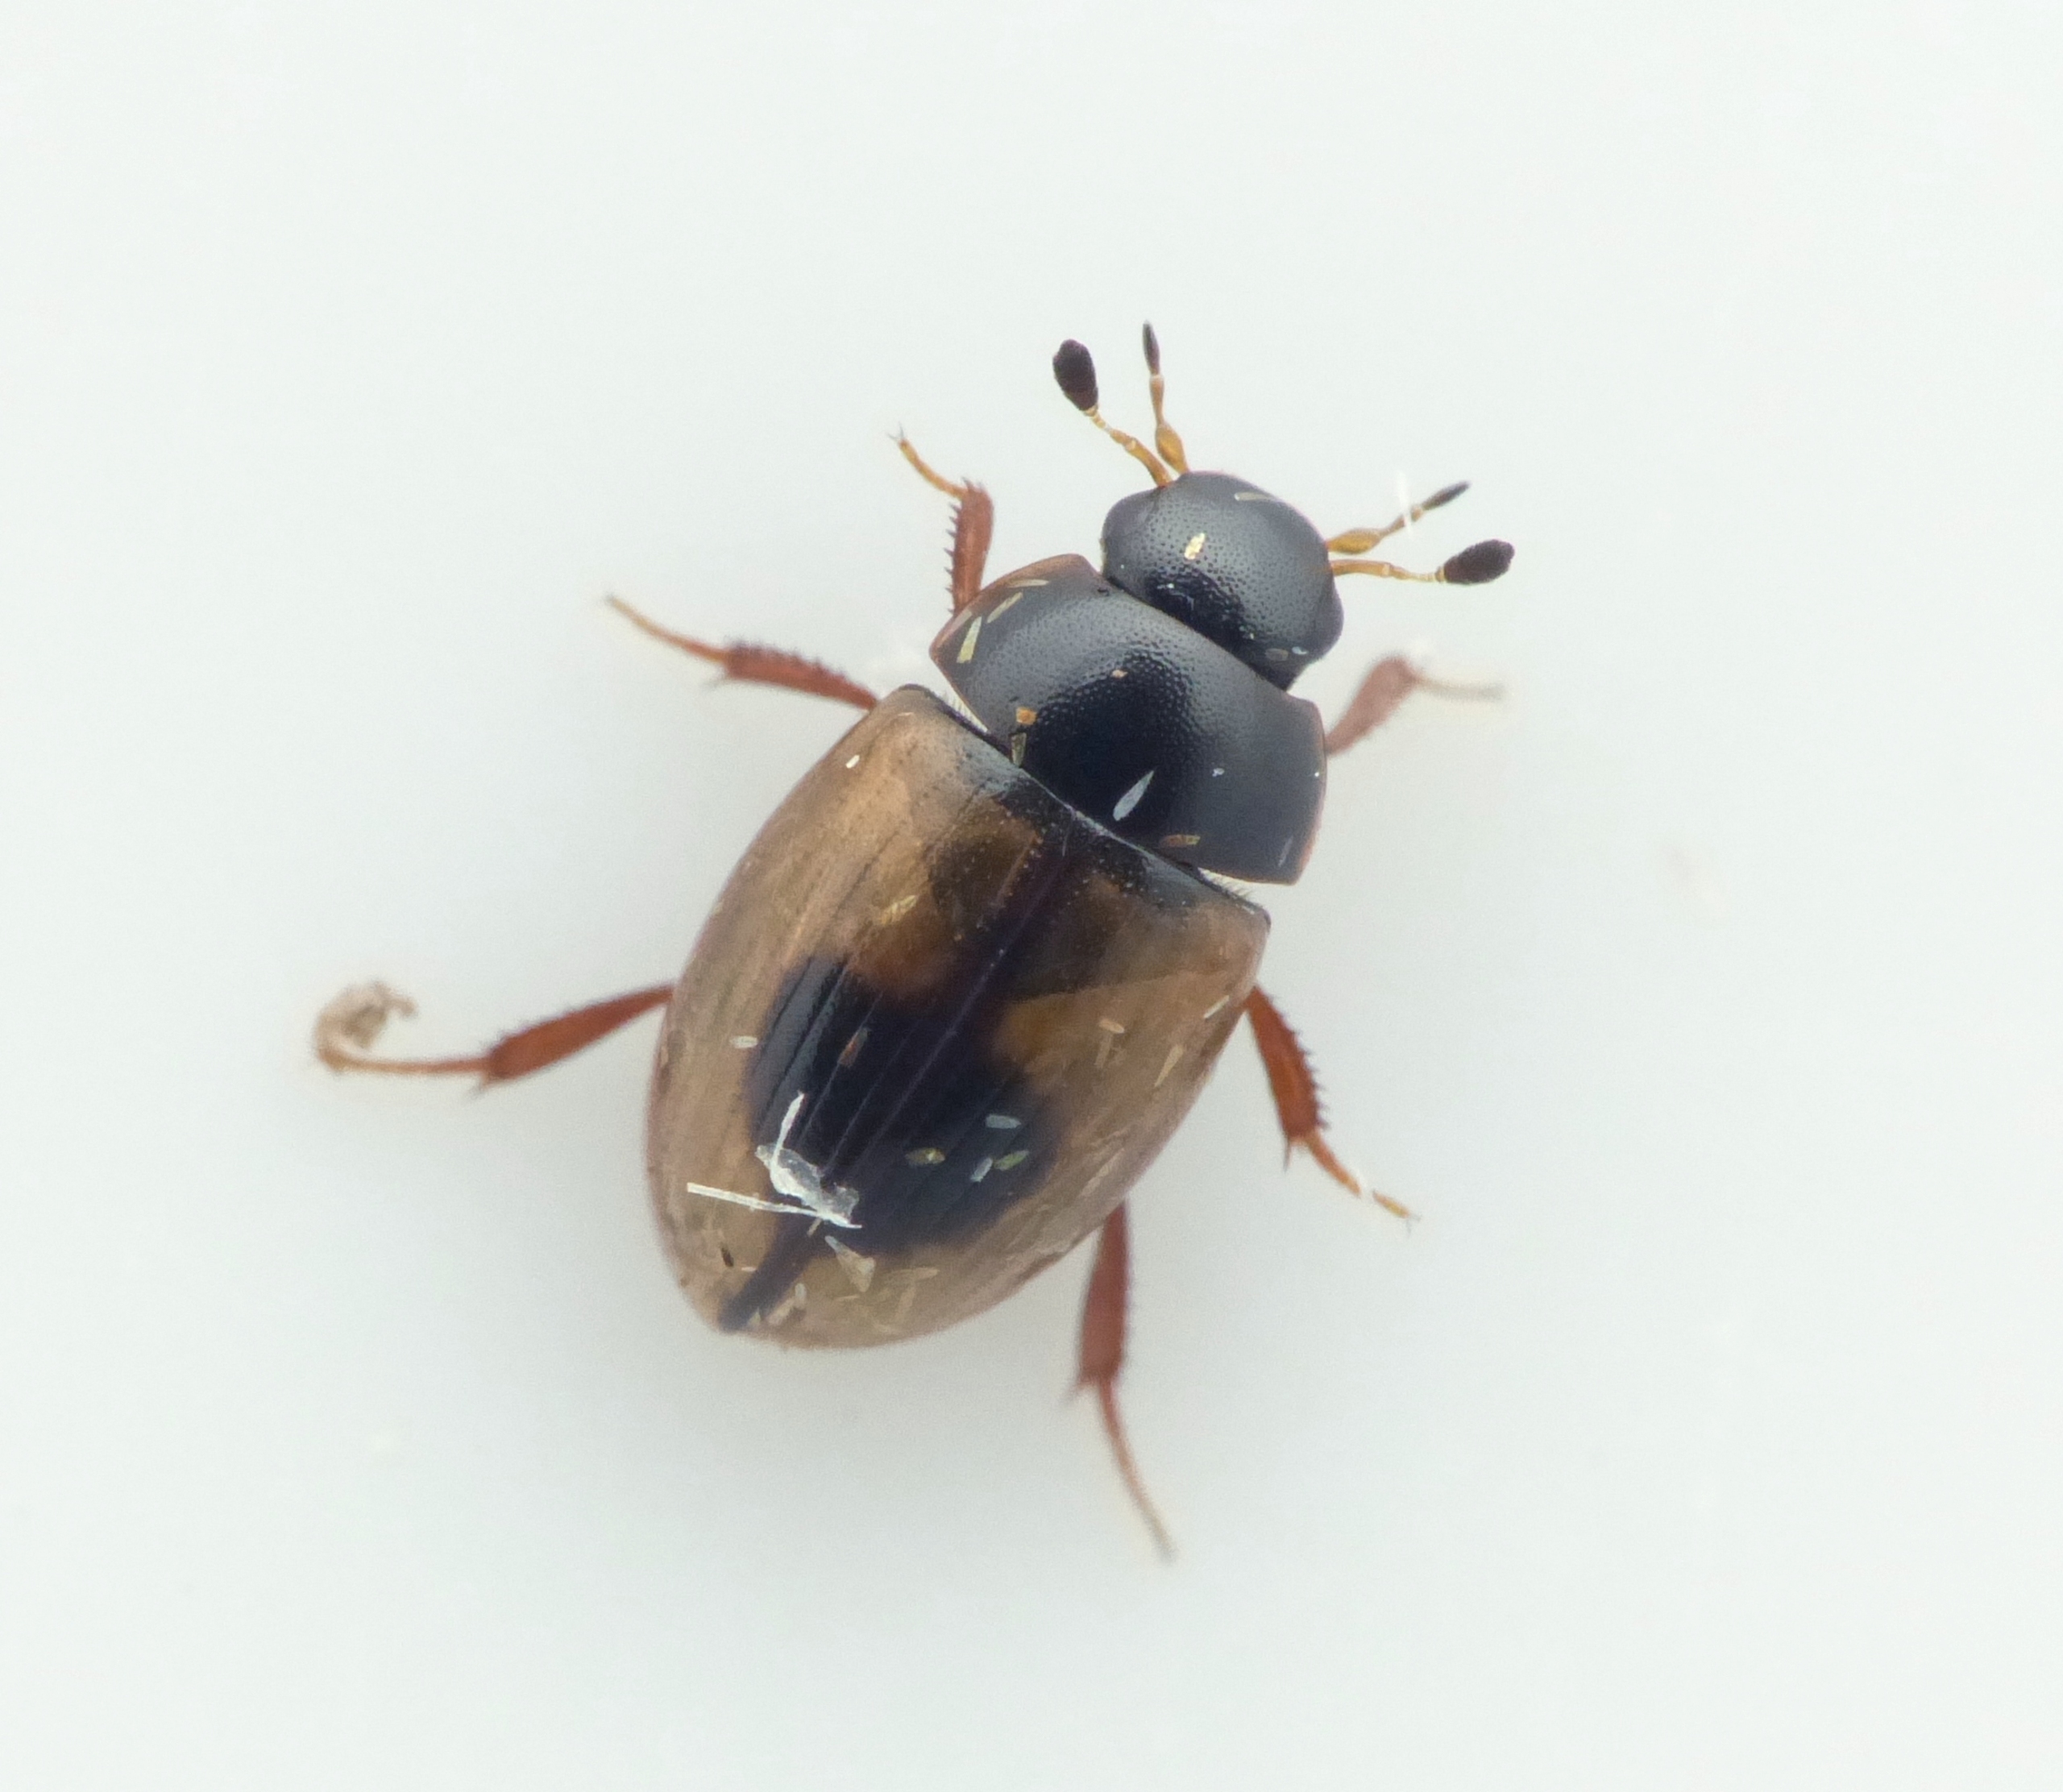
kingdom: Animalia
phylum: Arthropoda
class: Insecta
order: Coleoptera
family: Hydrophilidae
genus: Cercyon
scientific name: Cercyon unipunctatus
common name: Enplettet landkær
